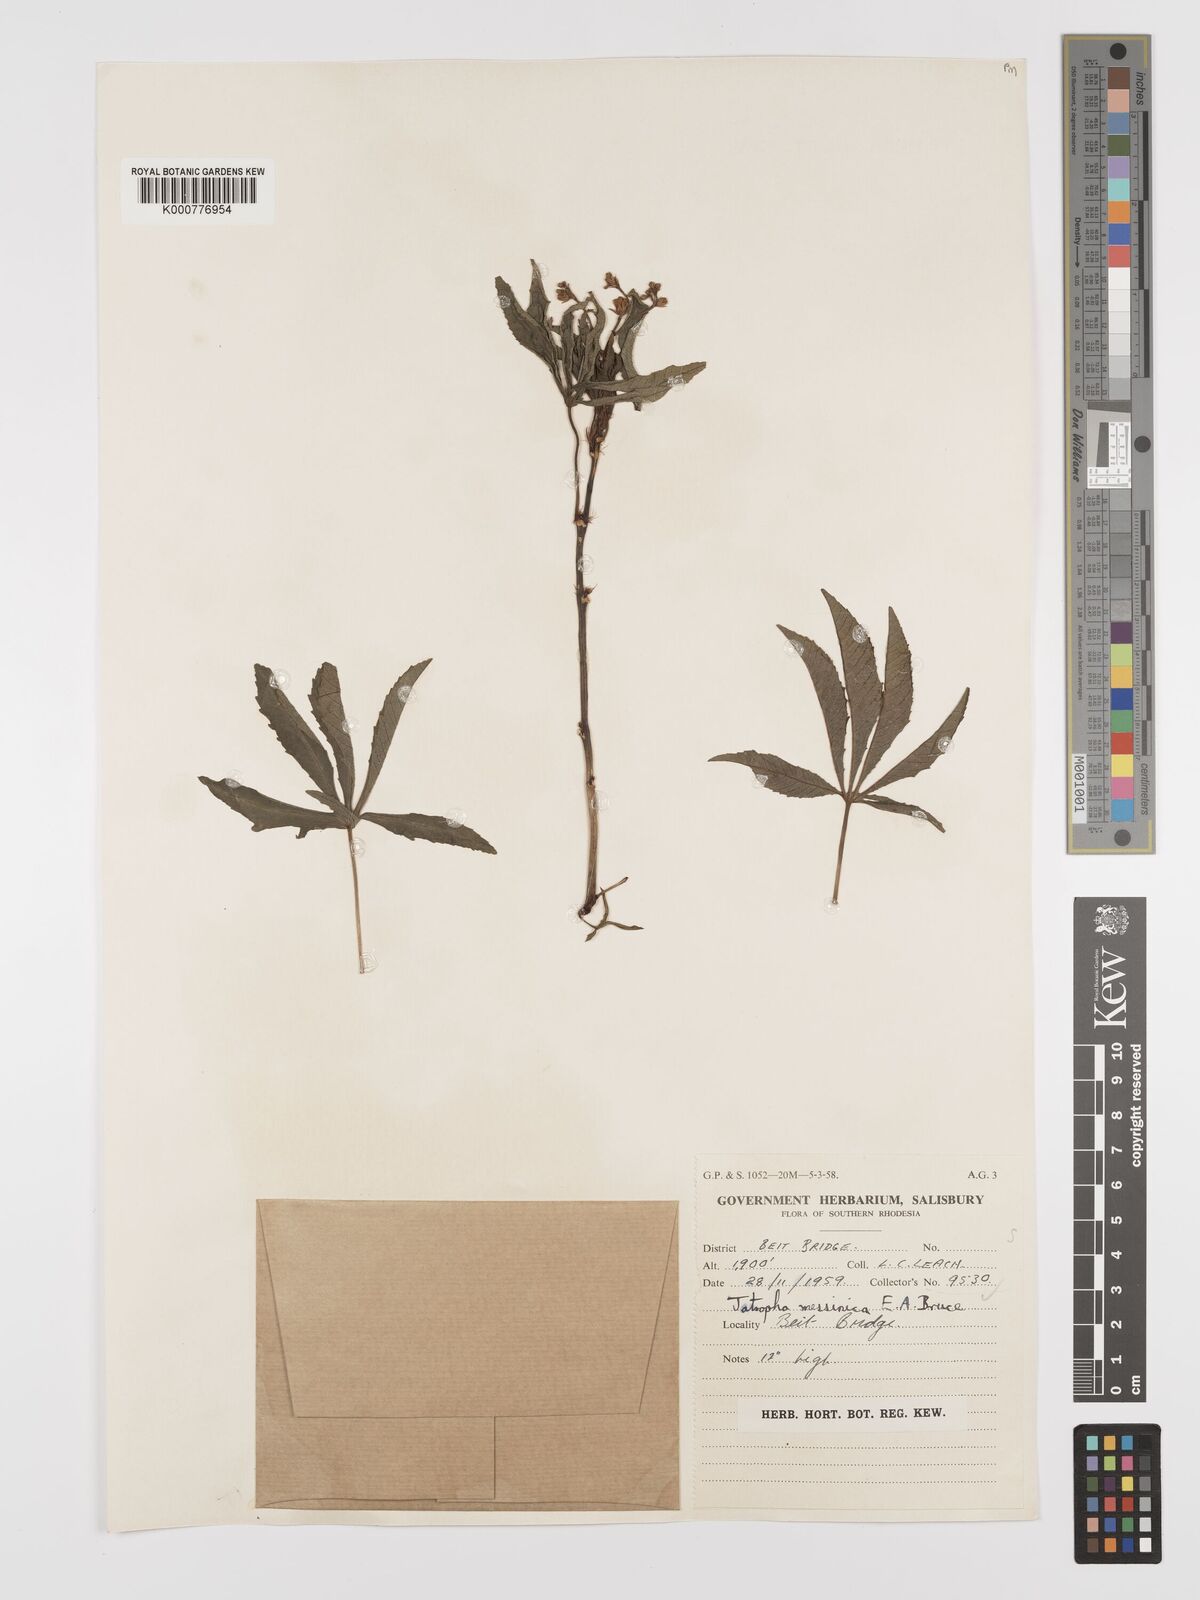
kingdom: Plantae
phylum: Tracheophyta
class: Magnoliopsida
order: Malpighiales
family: Euphorbiaceae
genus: Jatropha
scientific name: Jatropha spicata
